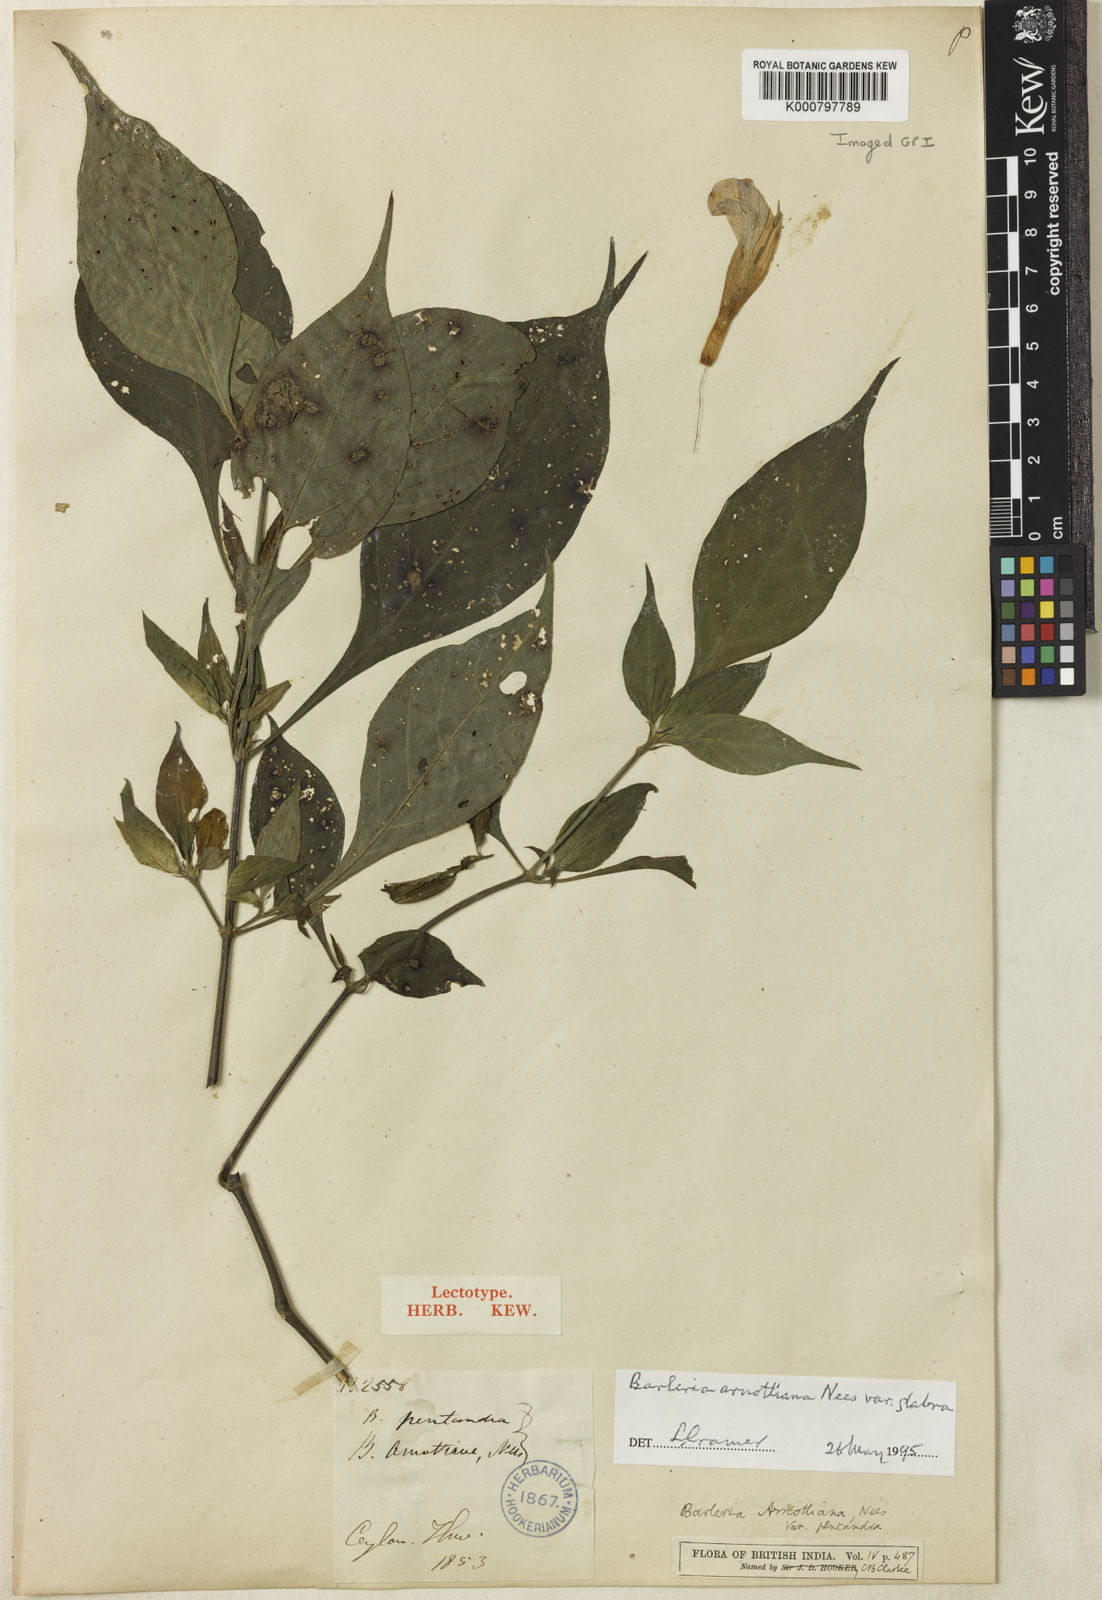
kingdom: Plantae
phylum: Tracheophyta
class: Magnoliopsida
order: Lamiales
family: Acanthaceae
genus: Barleria
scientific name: Barleria arnottiana
